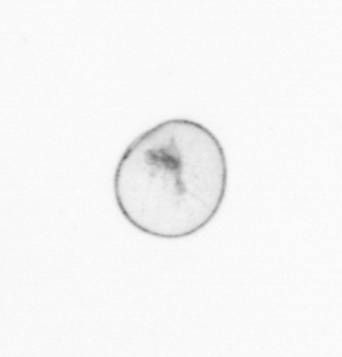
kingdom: Chromista
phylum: Myzozoa
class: Dinophyceae
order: Noctilucales
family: Noctilucaceae
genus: Noctiluca
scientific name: Noctiluca scintillans
